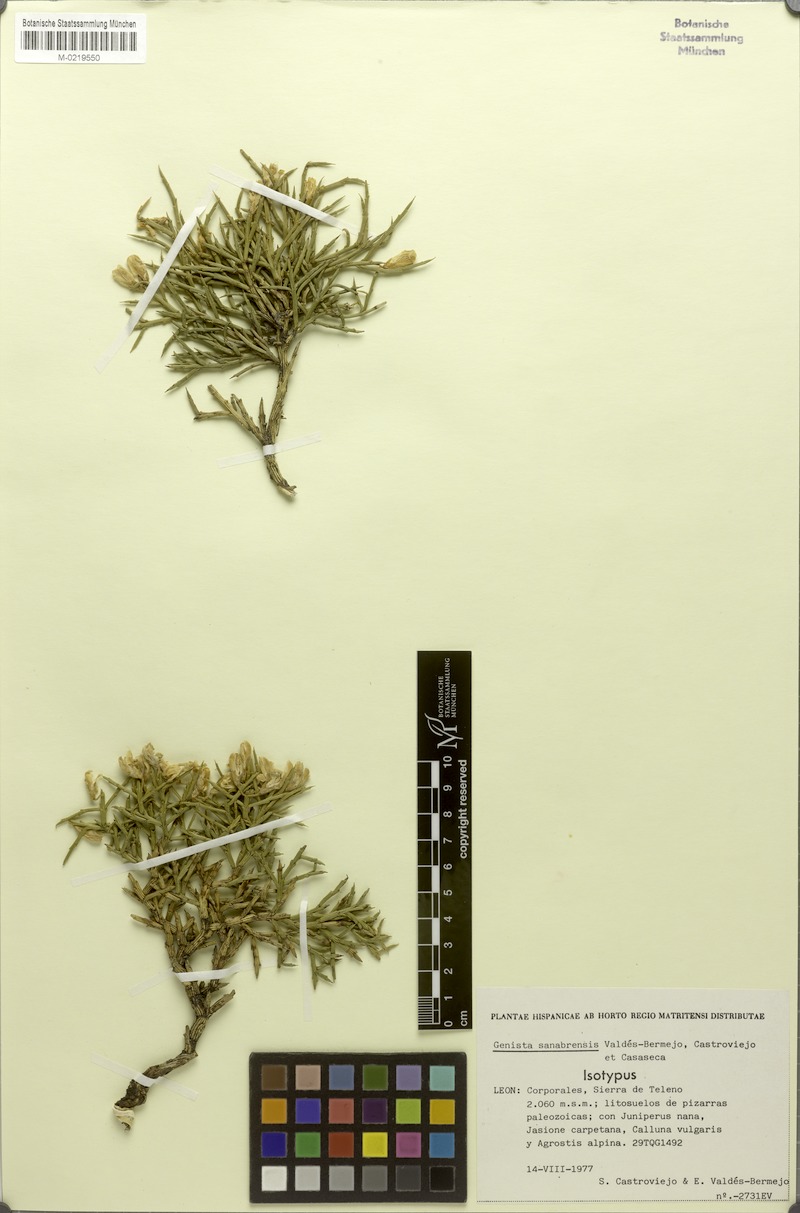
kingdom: Plantae
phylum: Tracheophyta
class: Magnoliopsida
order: Fabales
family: Fabaceae
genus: Genista
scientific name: Genista sanabrensis
